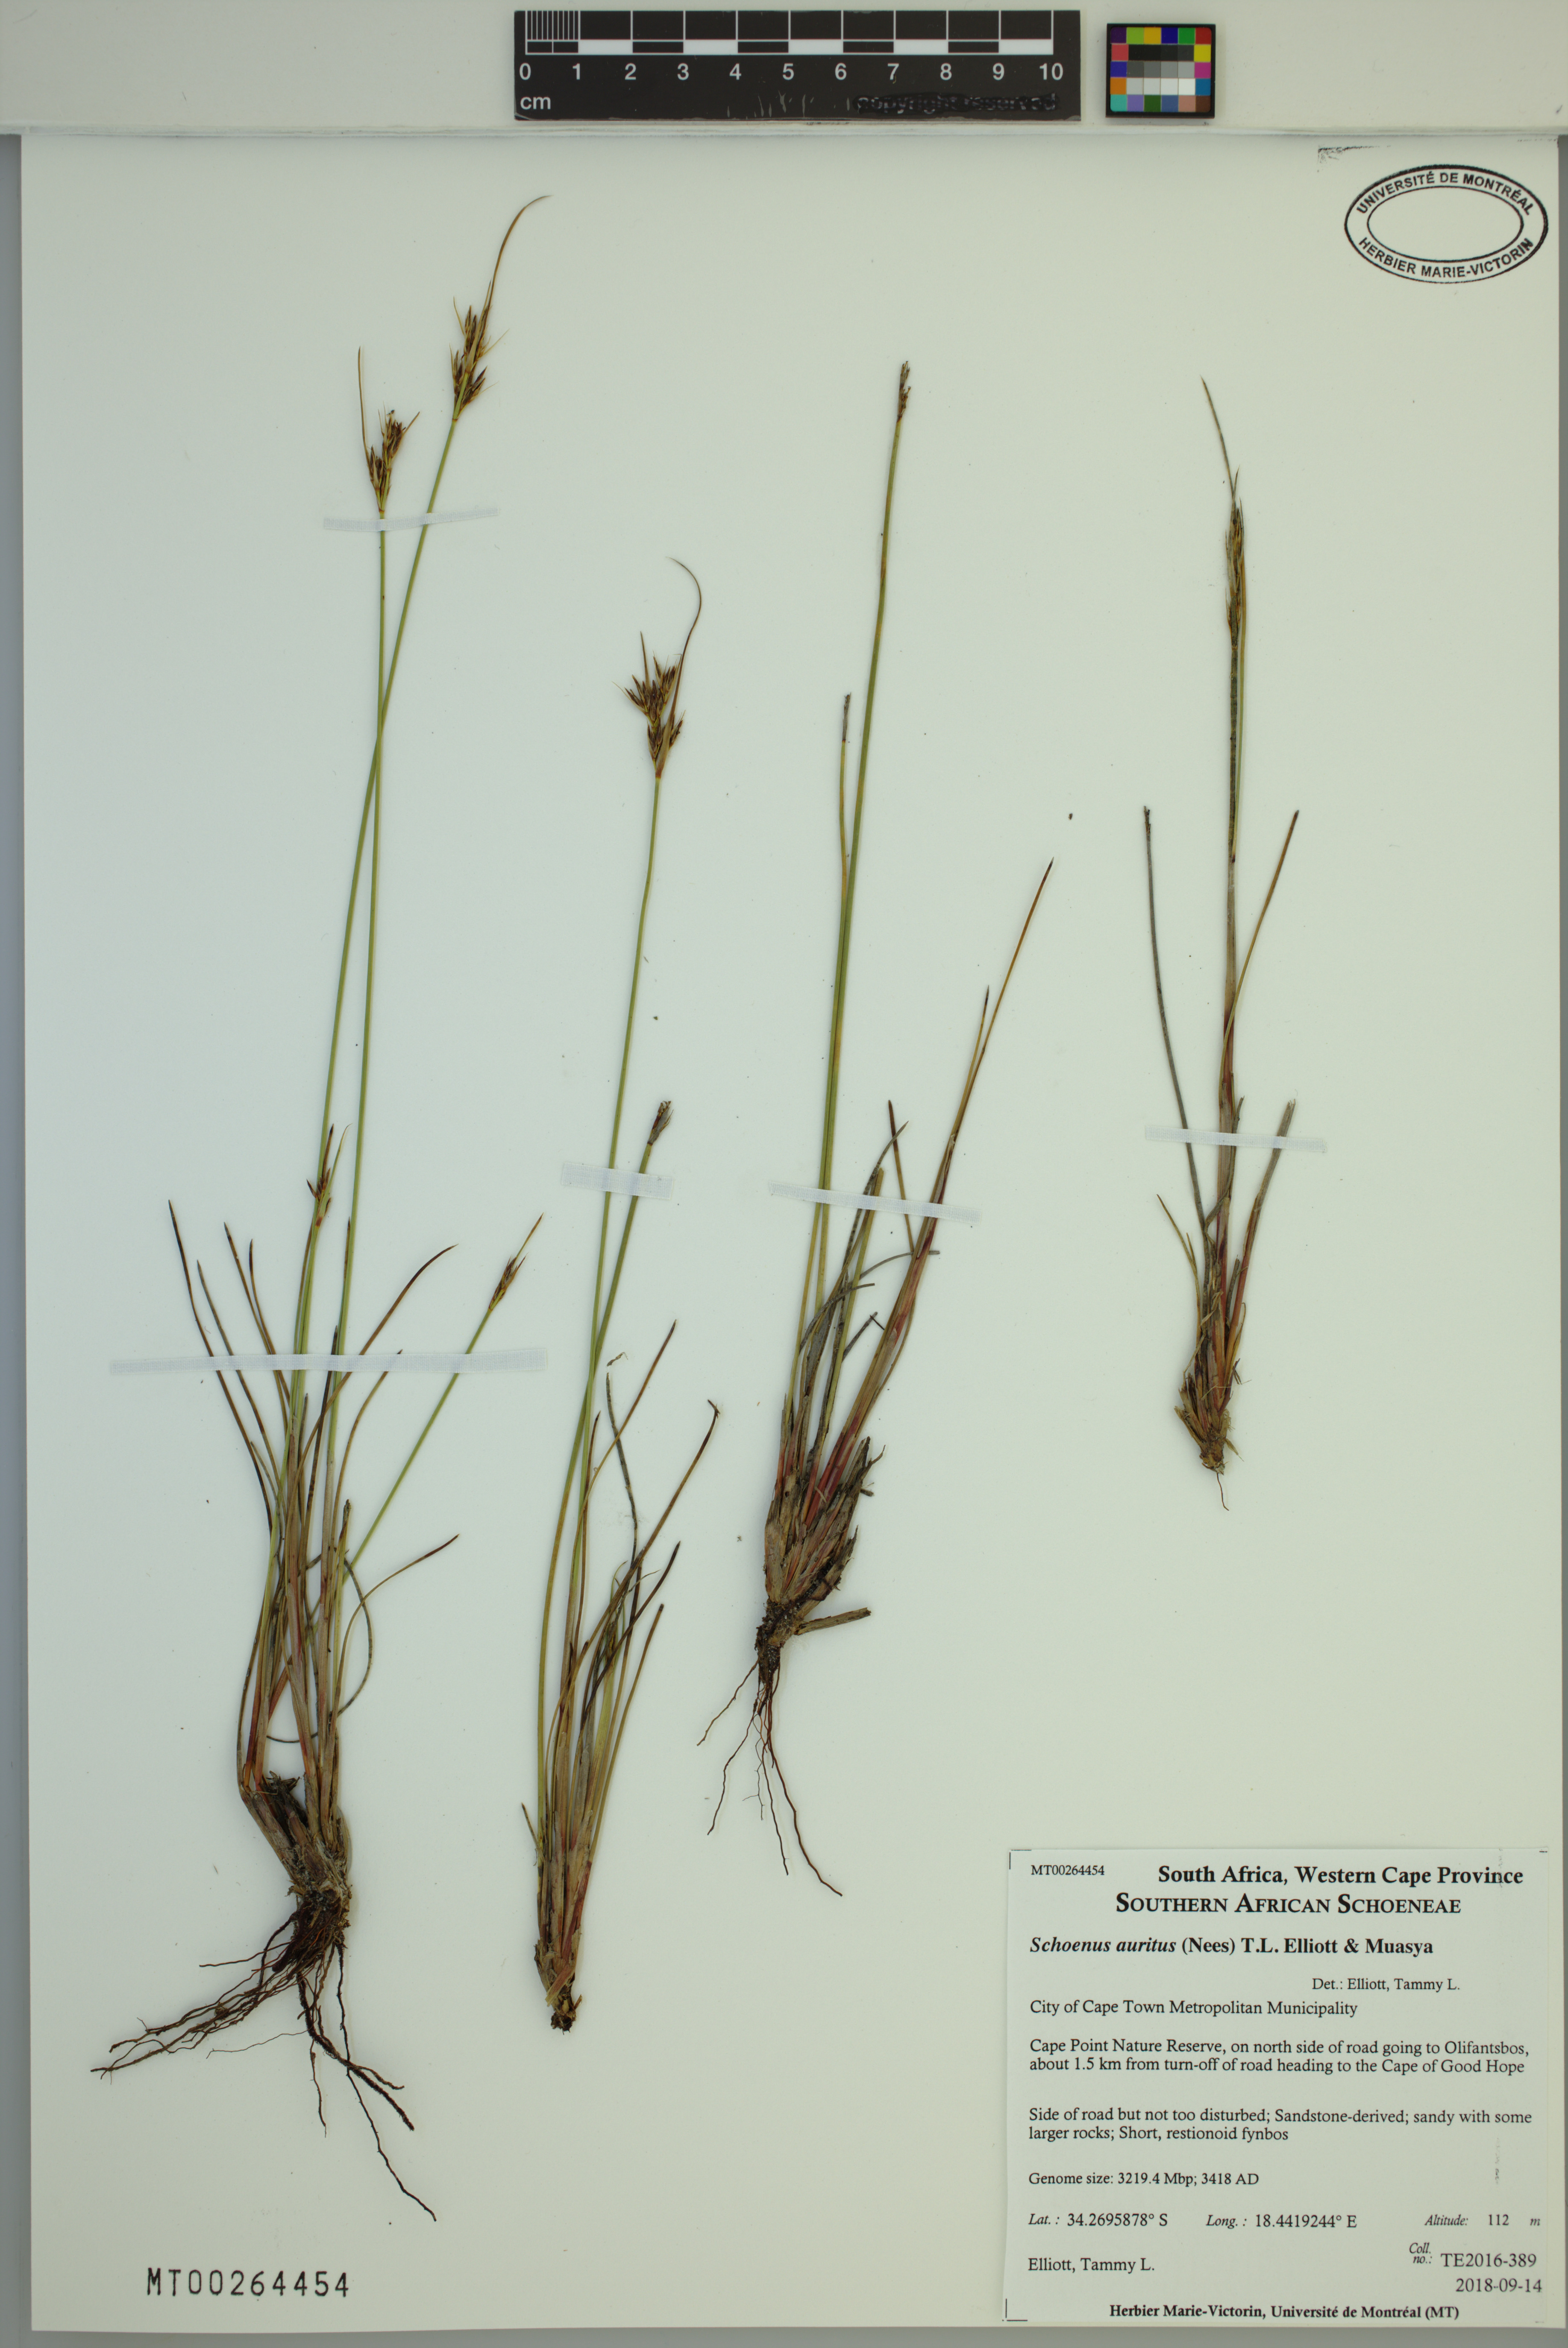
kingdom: Plantae
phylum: Tracheophyta
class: Liliopsida
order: Poales
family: Cyperaceae
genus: Schoenus
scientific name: Schoenus auritus
